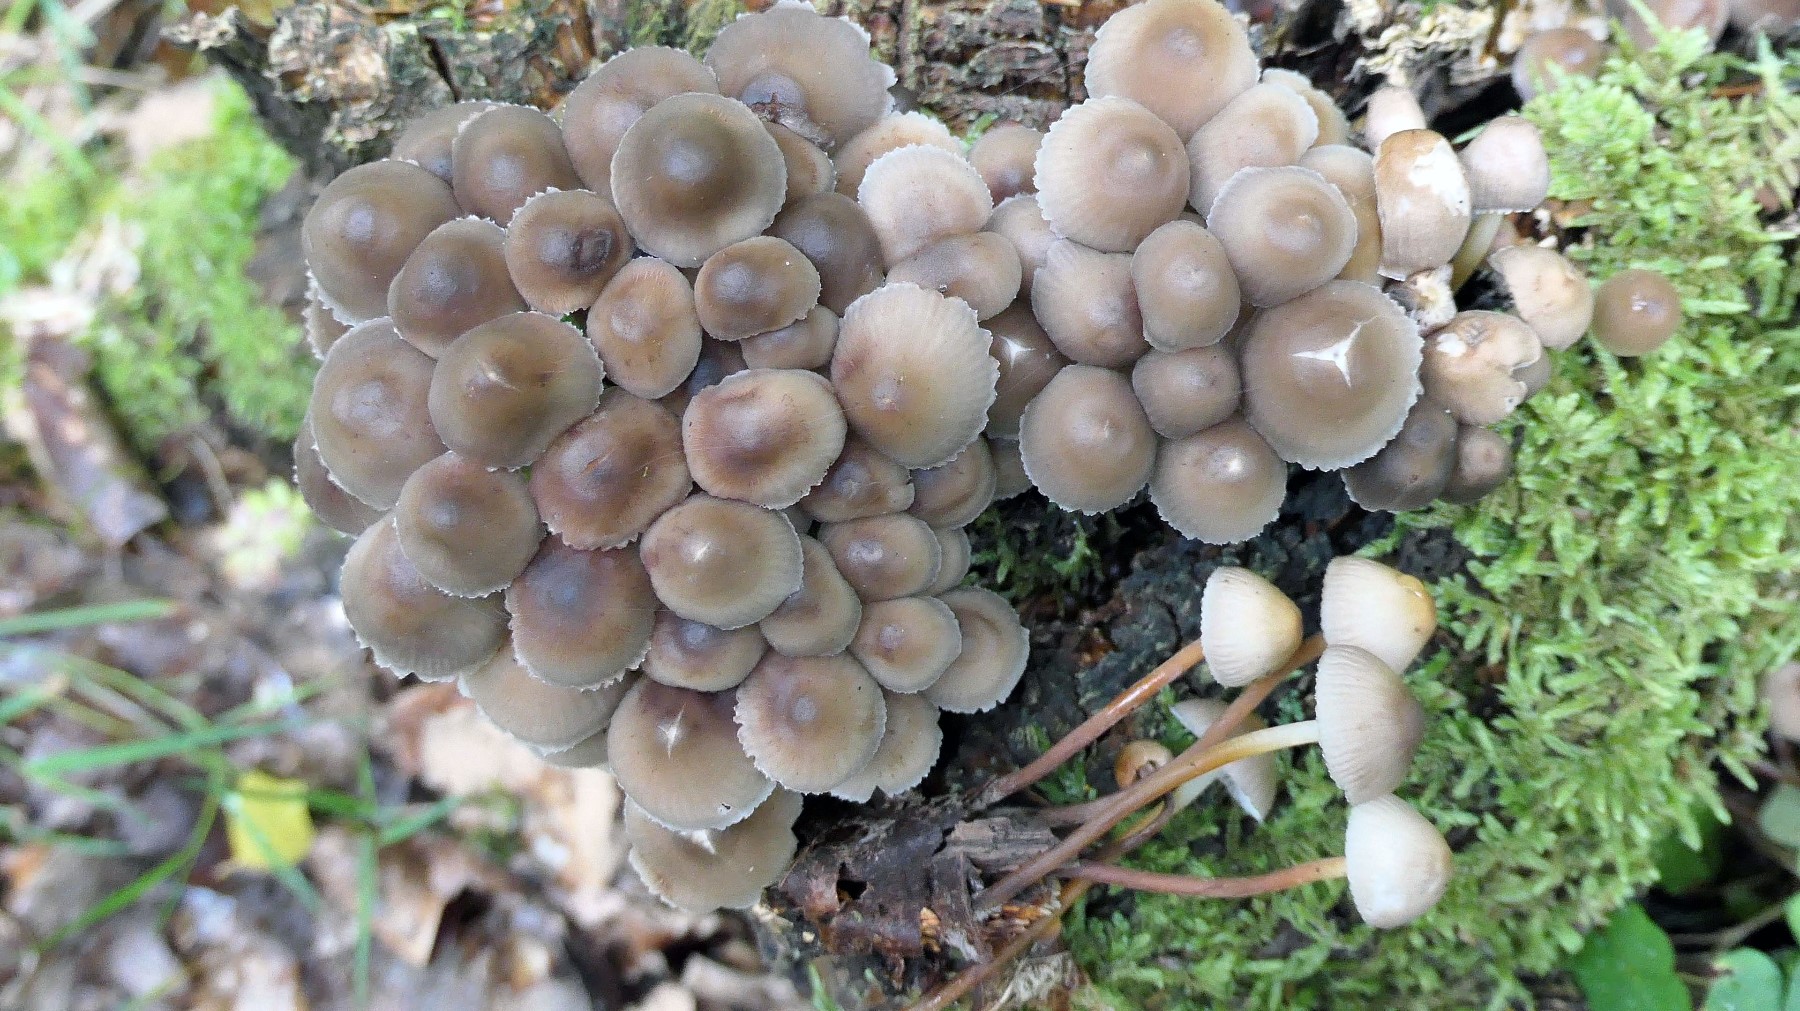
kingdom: Fungi
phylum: Basidiomycota
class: Agaricomycetes
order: Agaricales
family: Mycenaceae
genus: Mycena
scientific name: Mycena inclinata
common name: nikkende huesvamp
